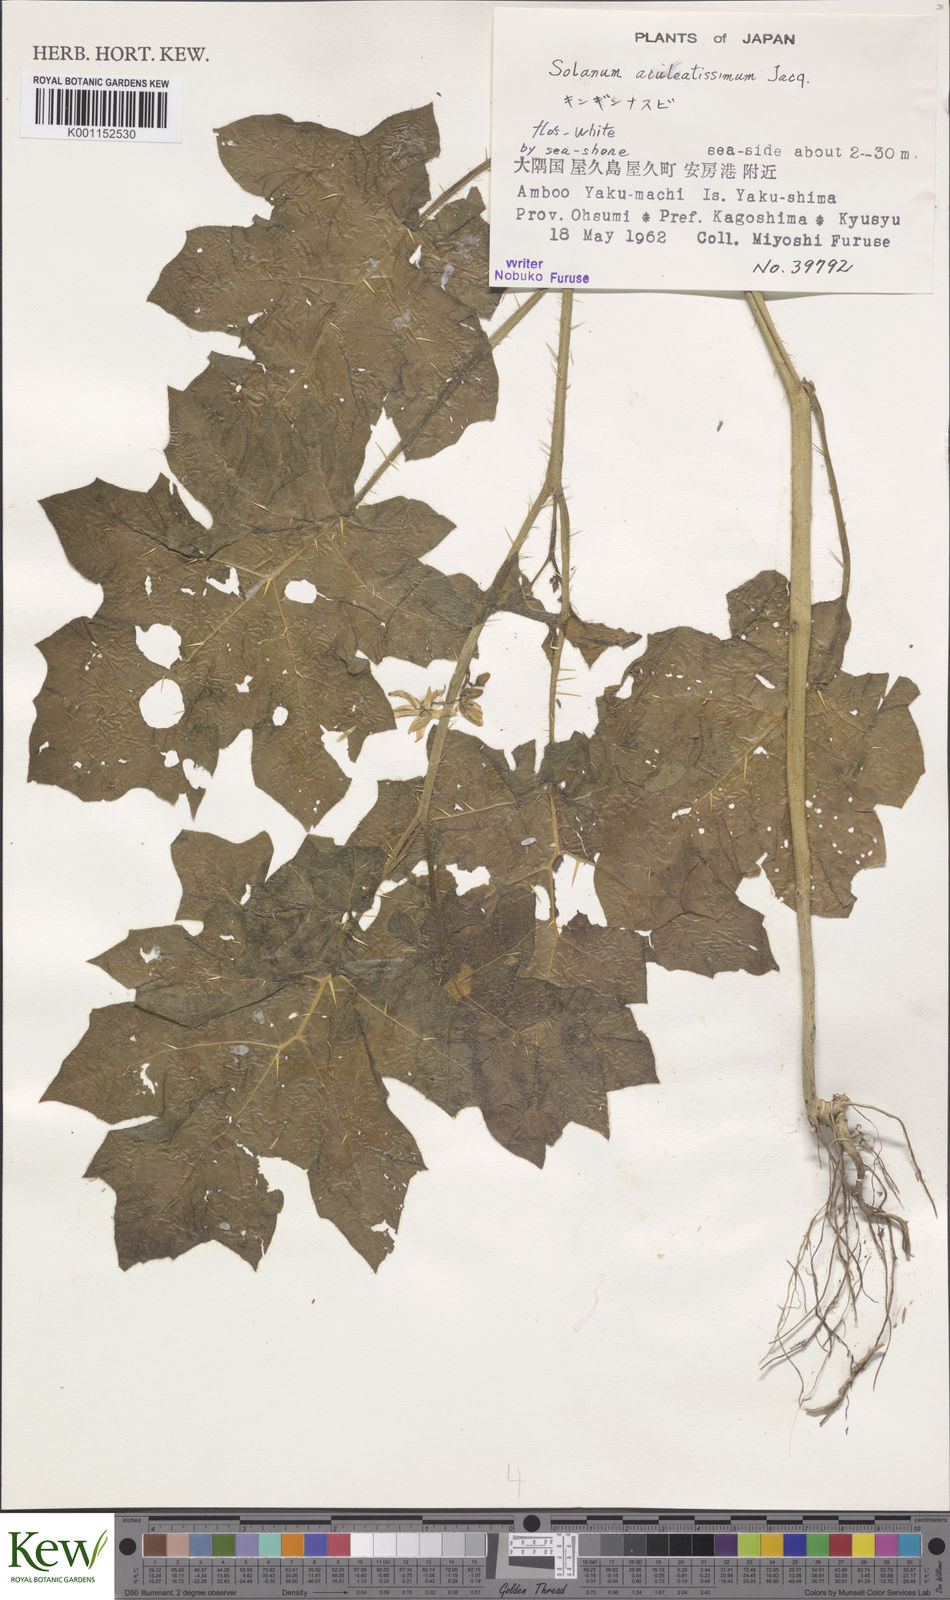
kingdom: Plantae
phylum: Tracheophyta
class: Magnoliopsida
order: Solanales
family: Solanaceae
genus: Solanum
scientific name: Solanum capsicoides
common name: Cockroach berry
